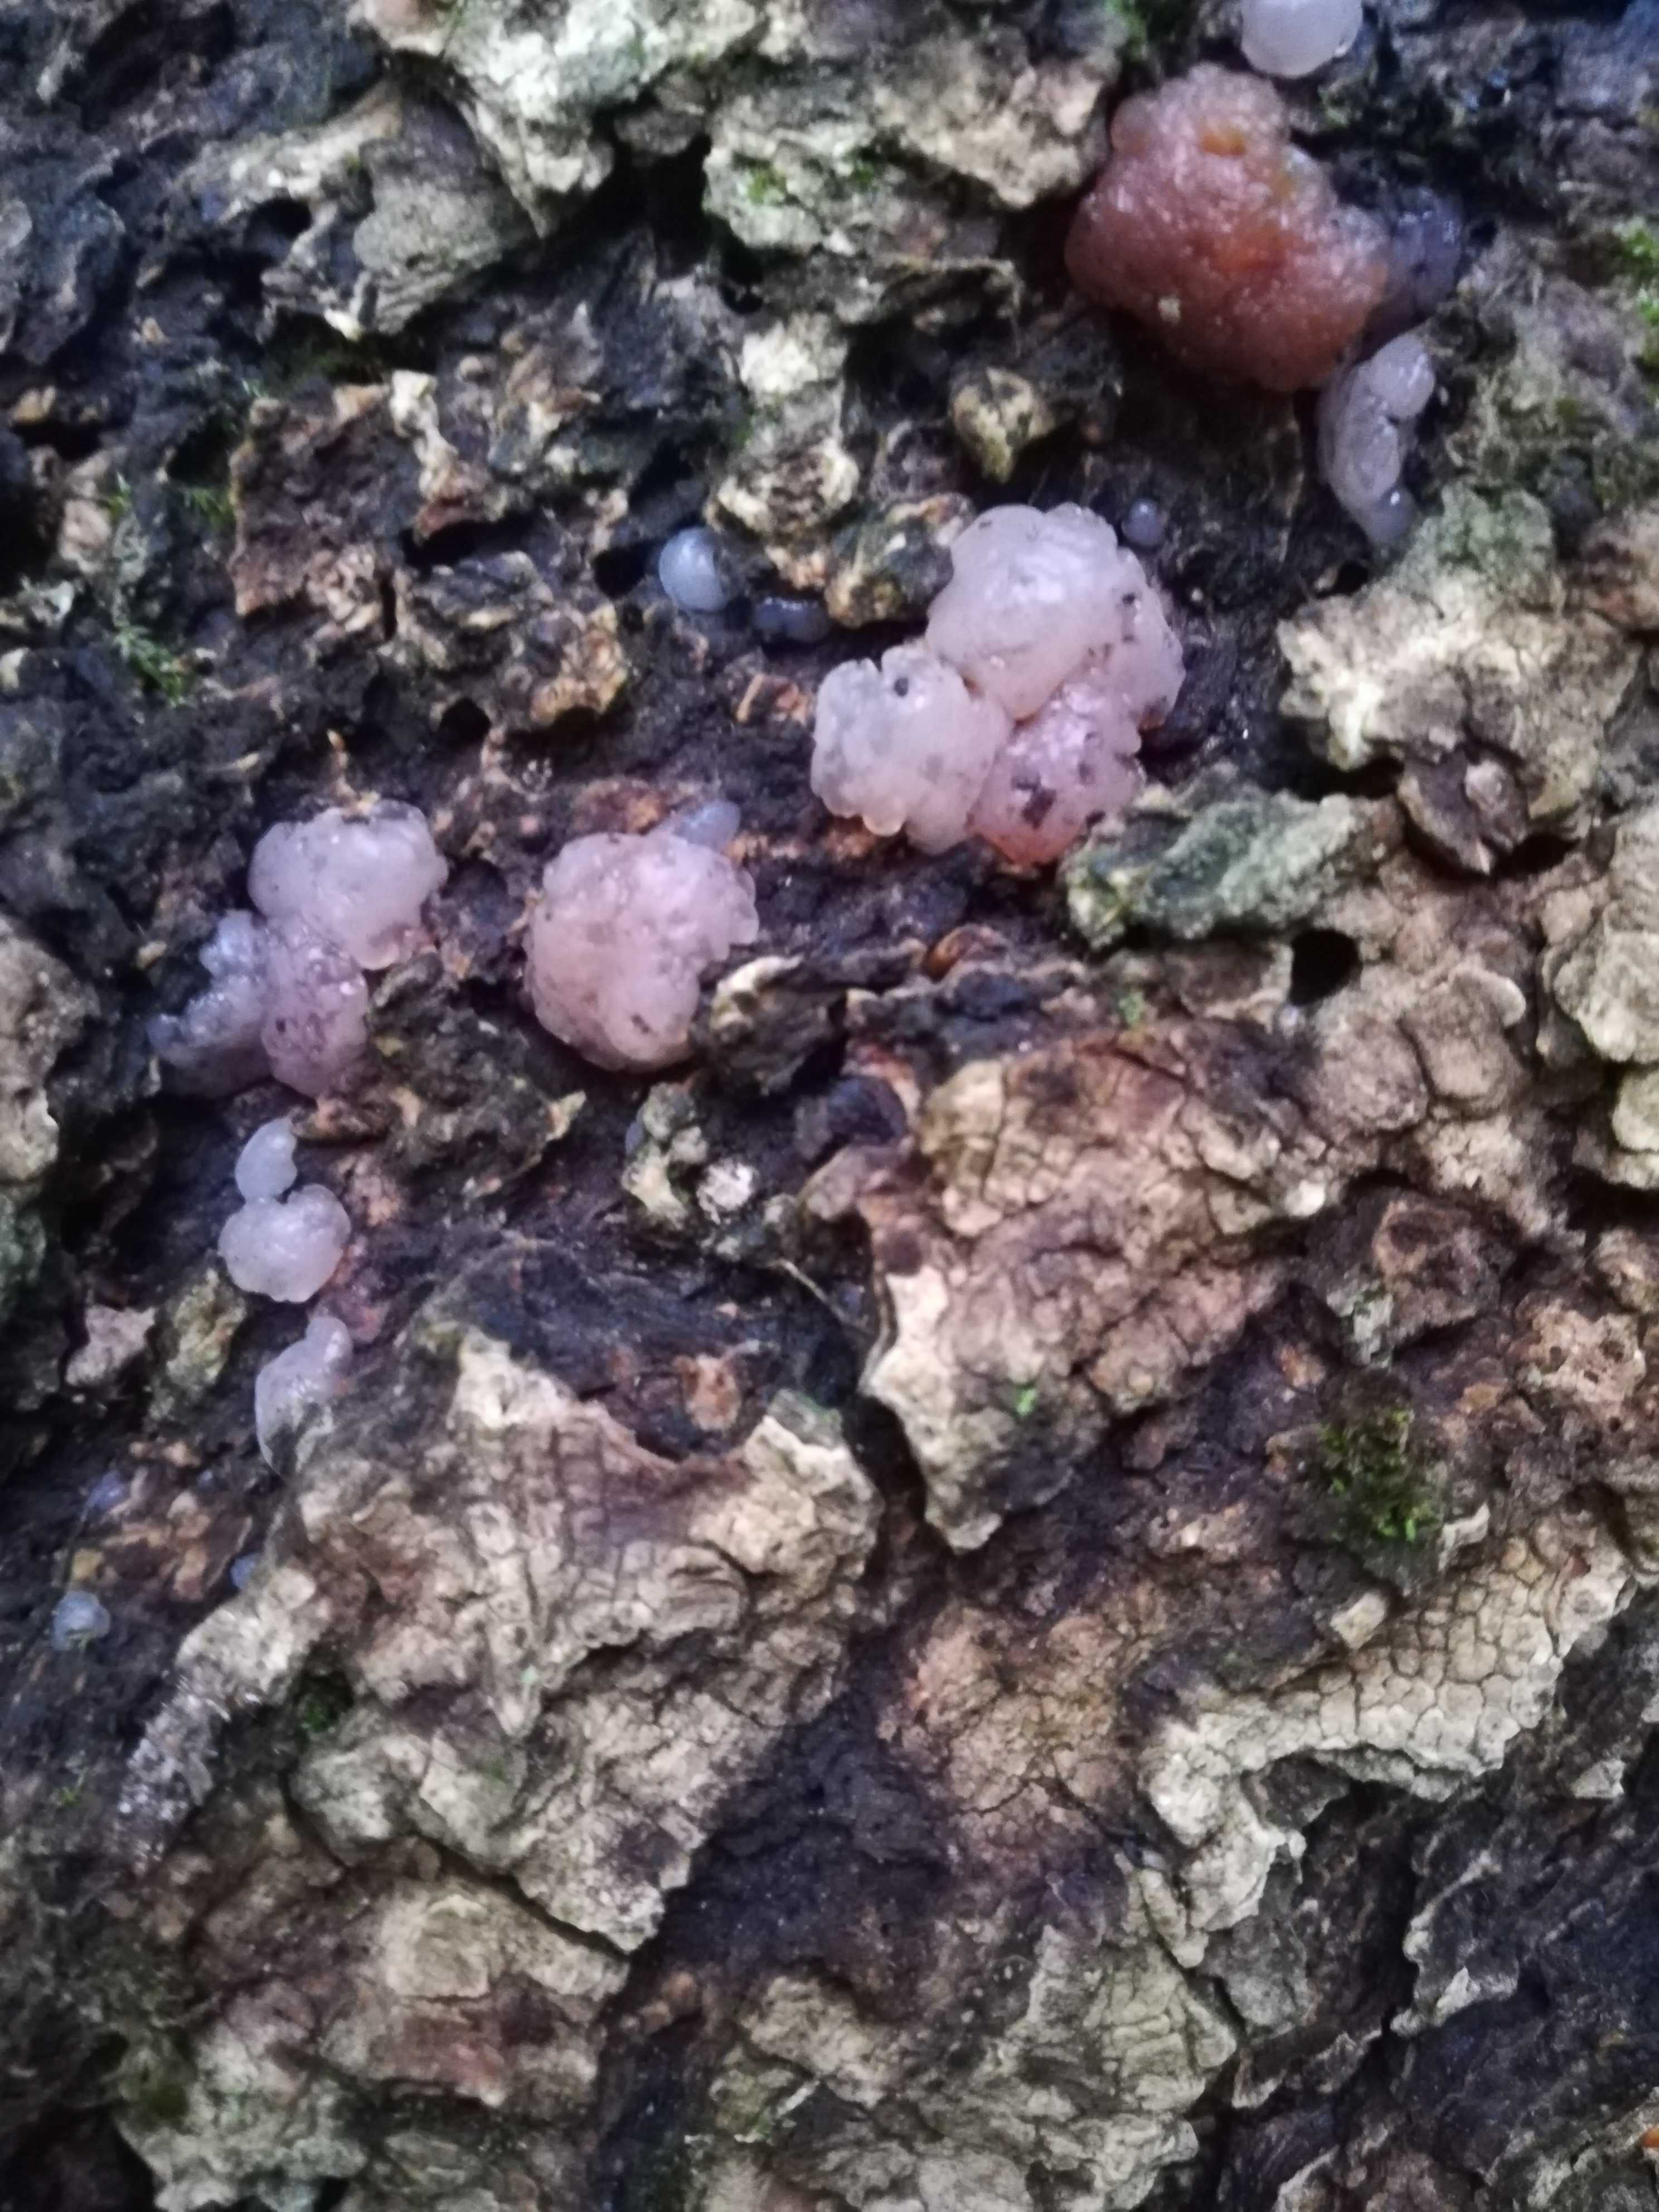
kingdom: Fungi
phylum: Basidiomycota
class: Agaricomycetes
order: Auriculariales
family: Hyaloriaceae
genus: Myxarium
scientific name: Myxarium nucleatum
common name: klar bævretop
